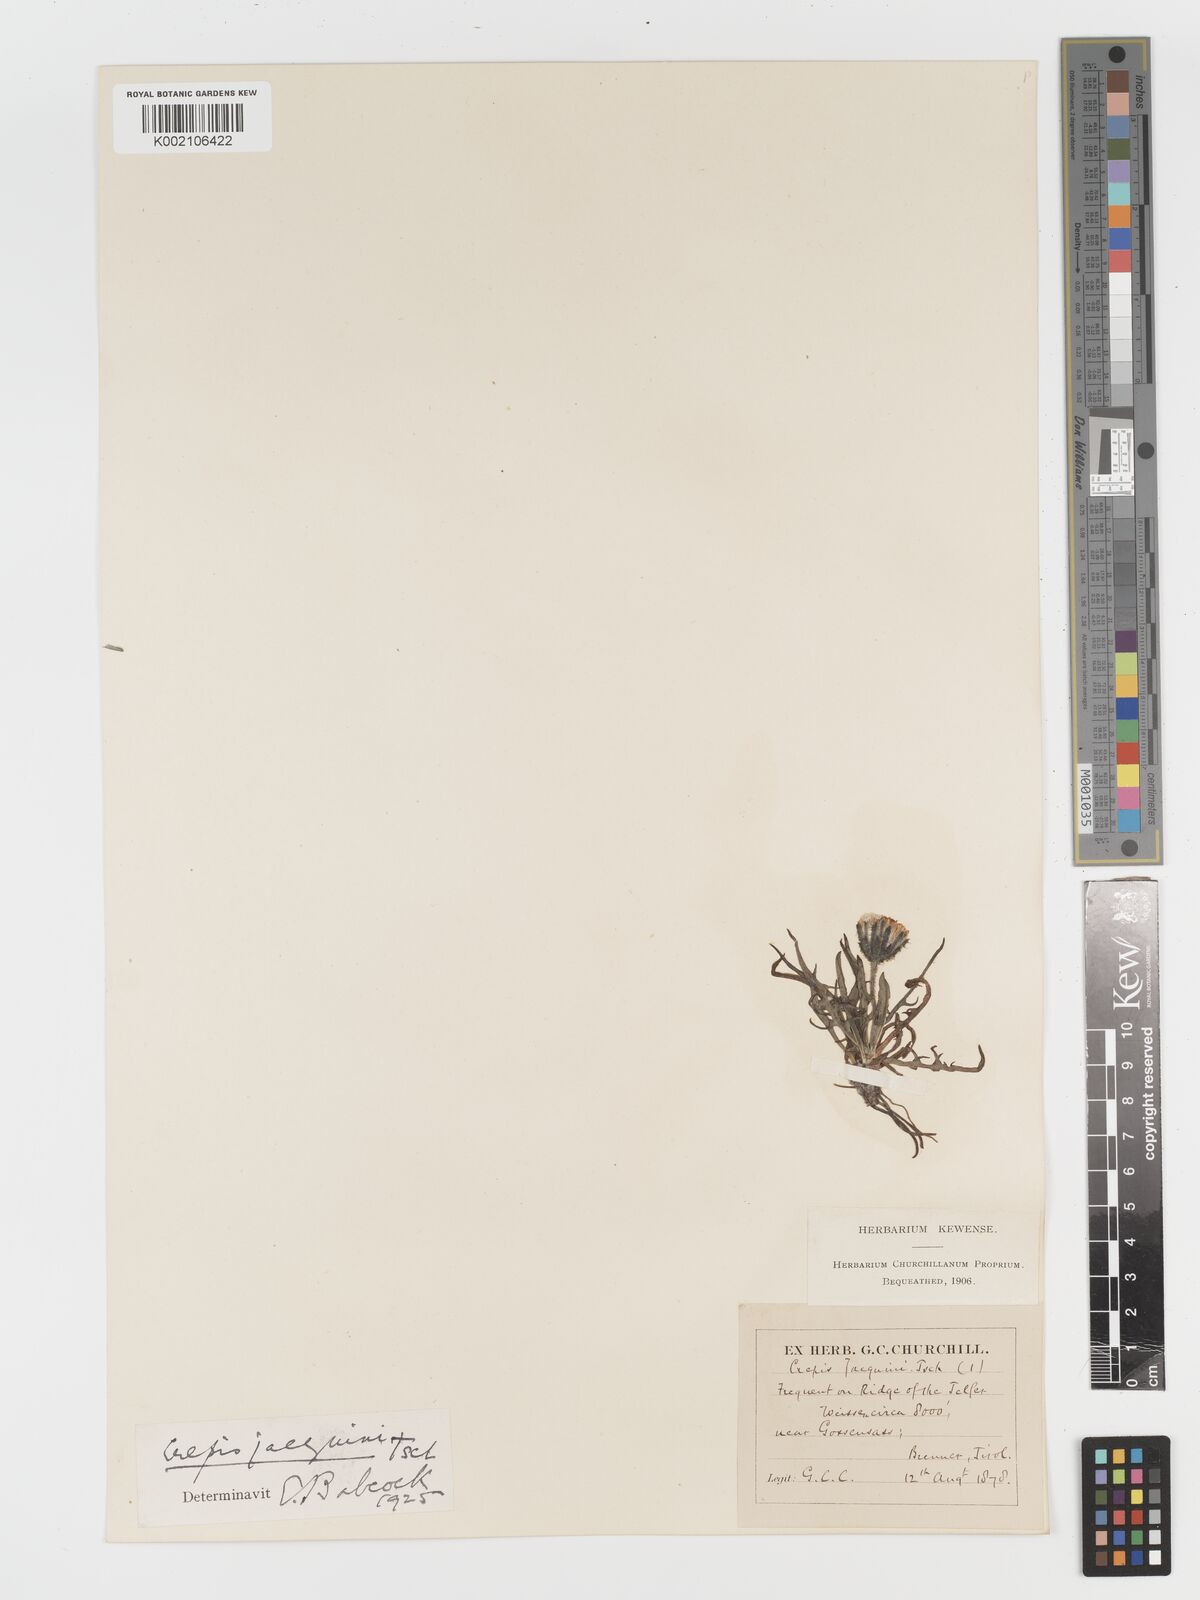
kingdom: Plantae
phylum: Tracheophyta
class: Magnoliopsida
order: Asterales
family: Asteraceae
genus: Crepis
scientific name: Crepis jacquinii
